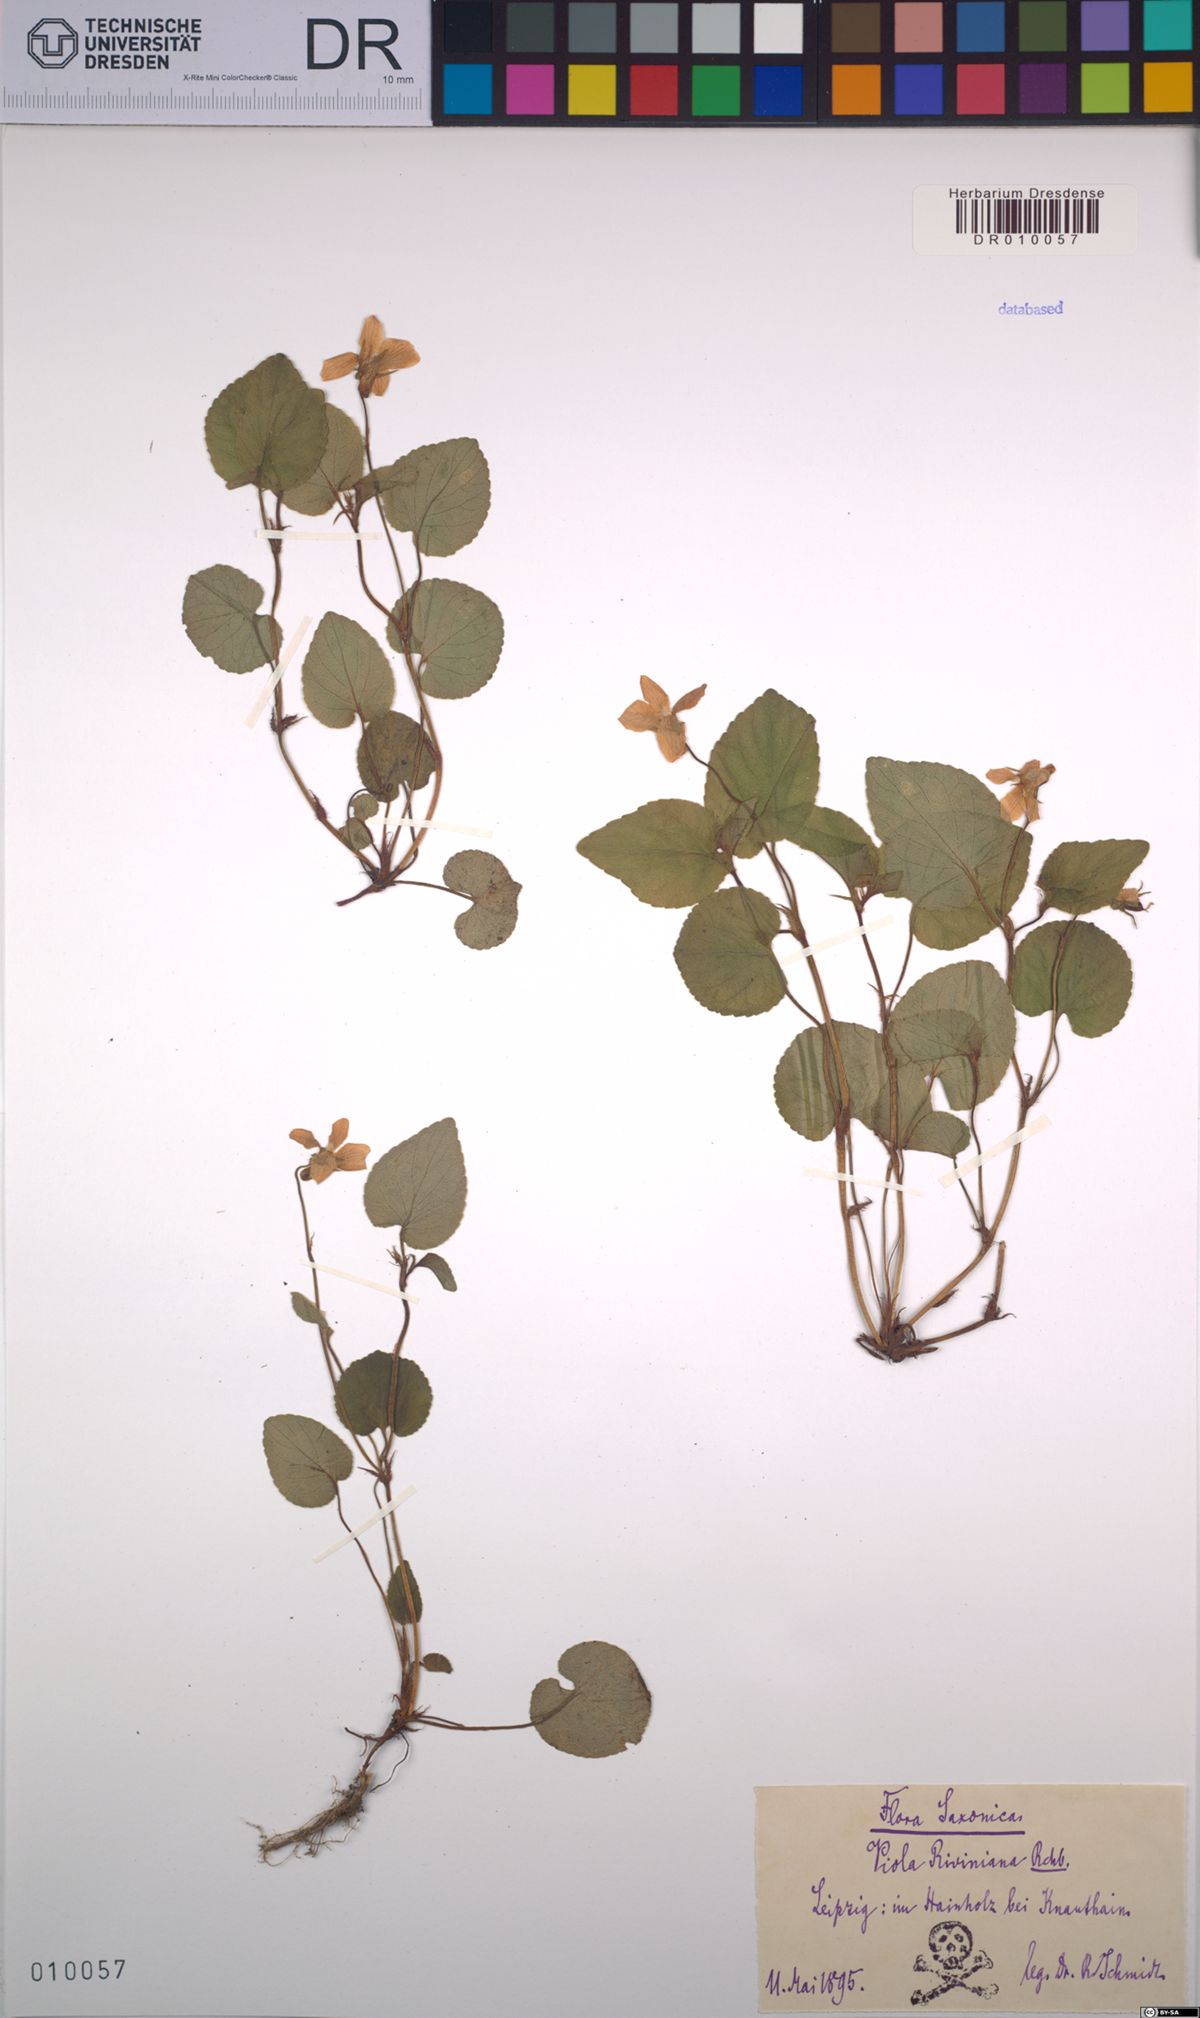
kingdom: Plantae
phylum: Tracheophyta
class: Magnoliopsida
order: Malpighiales
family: Violaceae
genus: Viola
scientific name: Viola riviniana
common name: Common dog-violet
